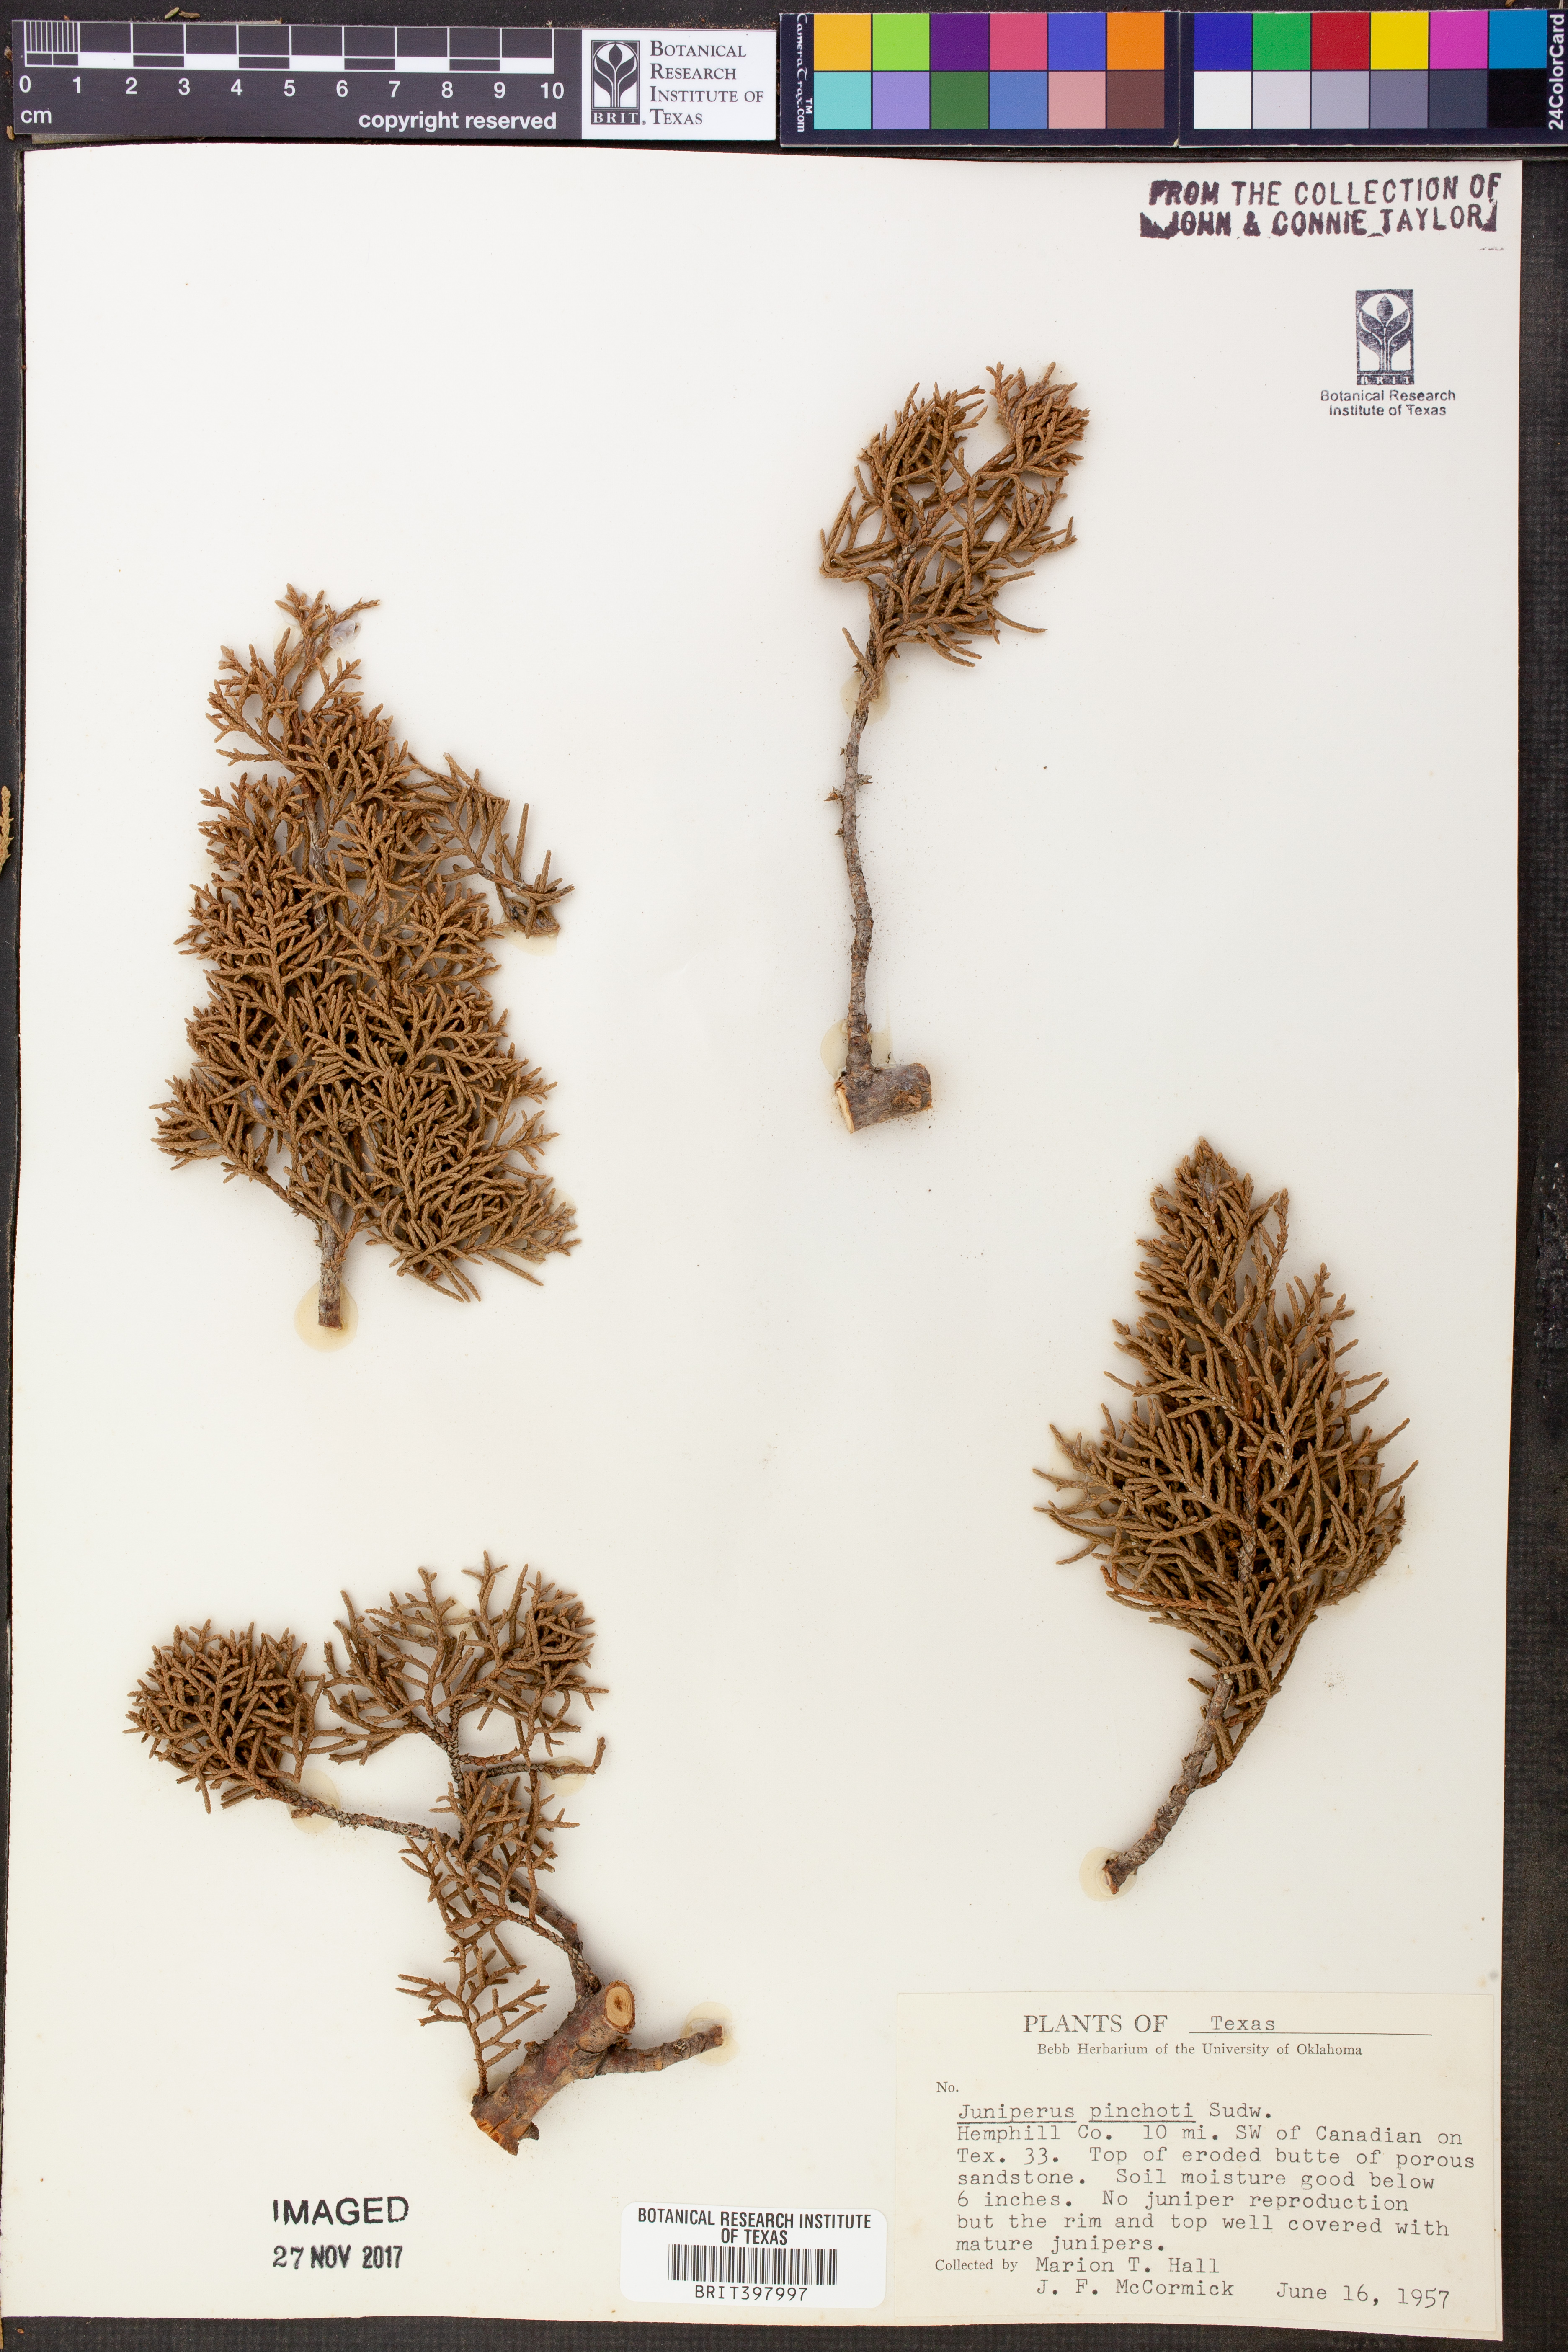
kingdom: Plantae
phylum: Tracheophyta
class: Pinopsida
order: Pinales
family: Cupressaceae
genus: Juniperus
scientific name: Juniperus pinchotii
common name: Pinchot juniper
